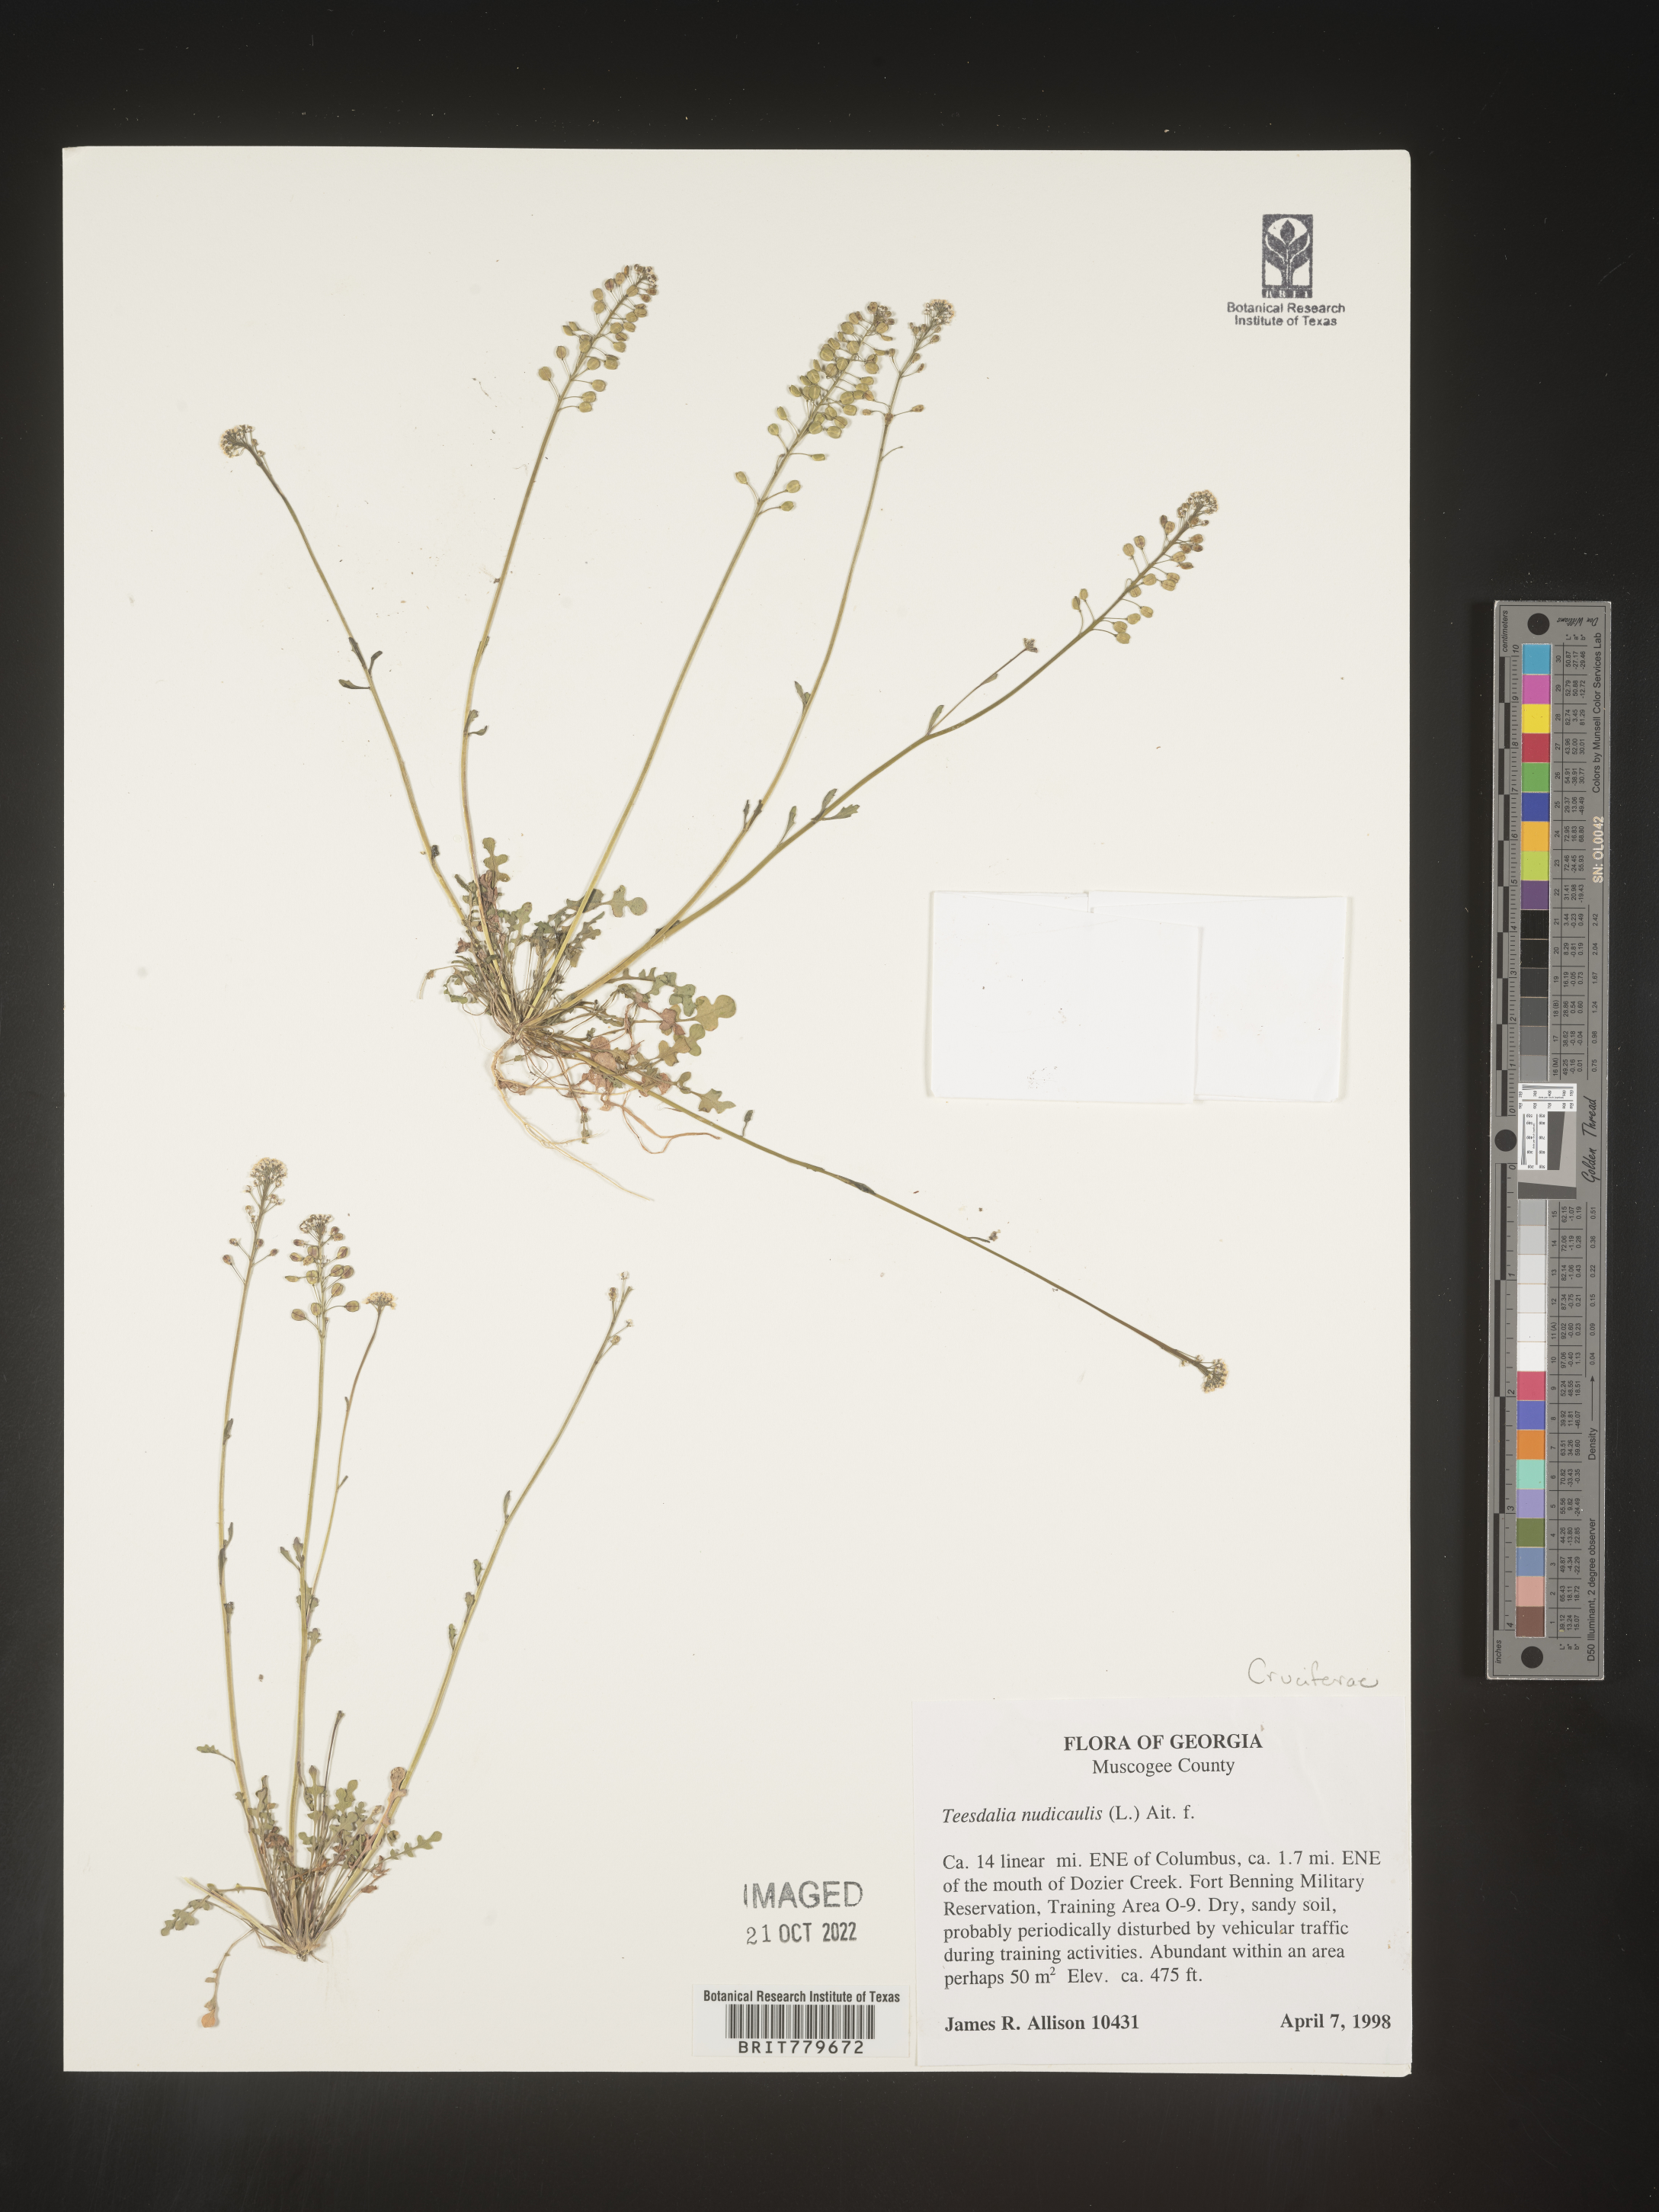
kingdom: Plantae
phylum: Tracheophyta
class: Magnoliopsida
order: Brassicales
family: Brassicaceae
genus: Teesdalia
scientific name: Teesdalia
